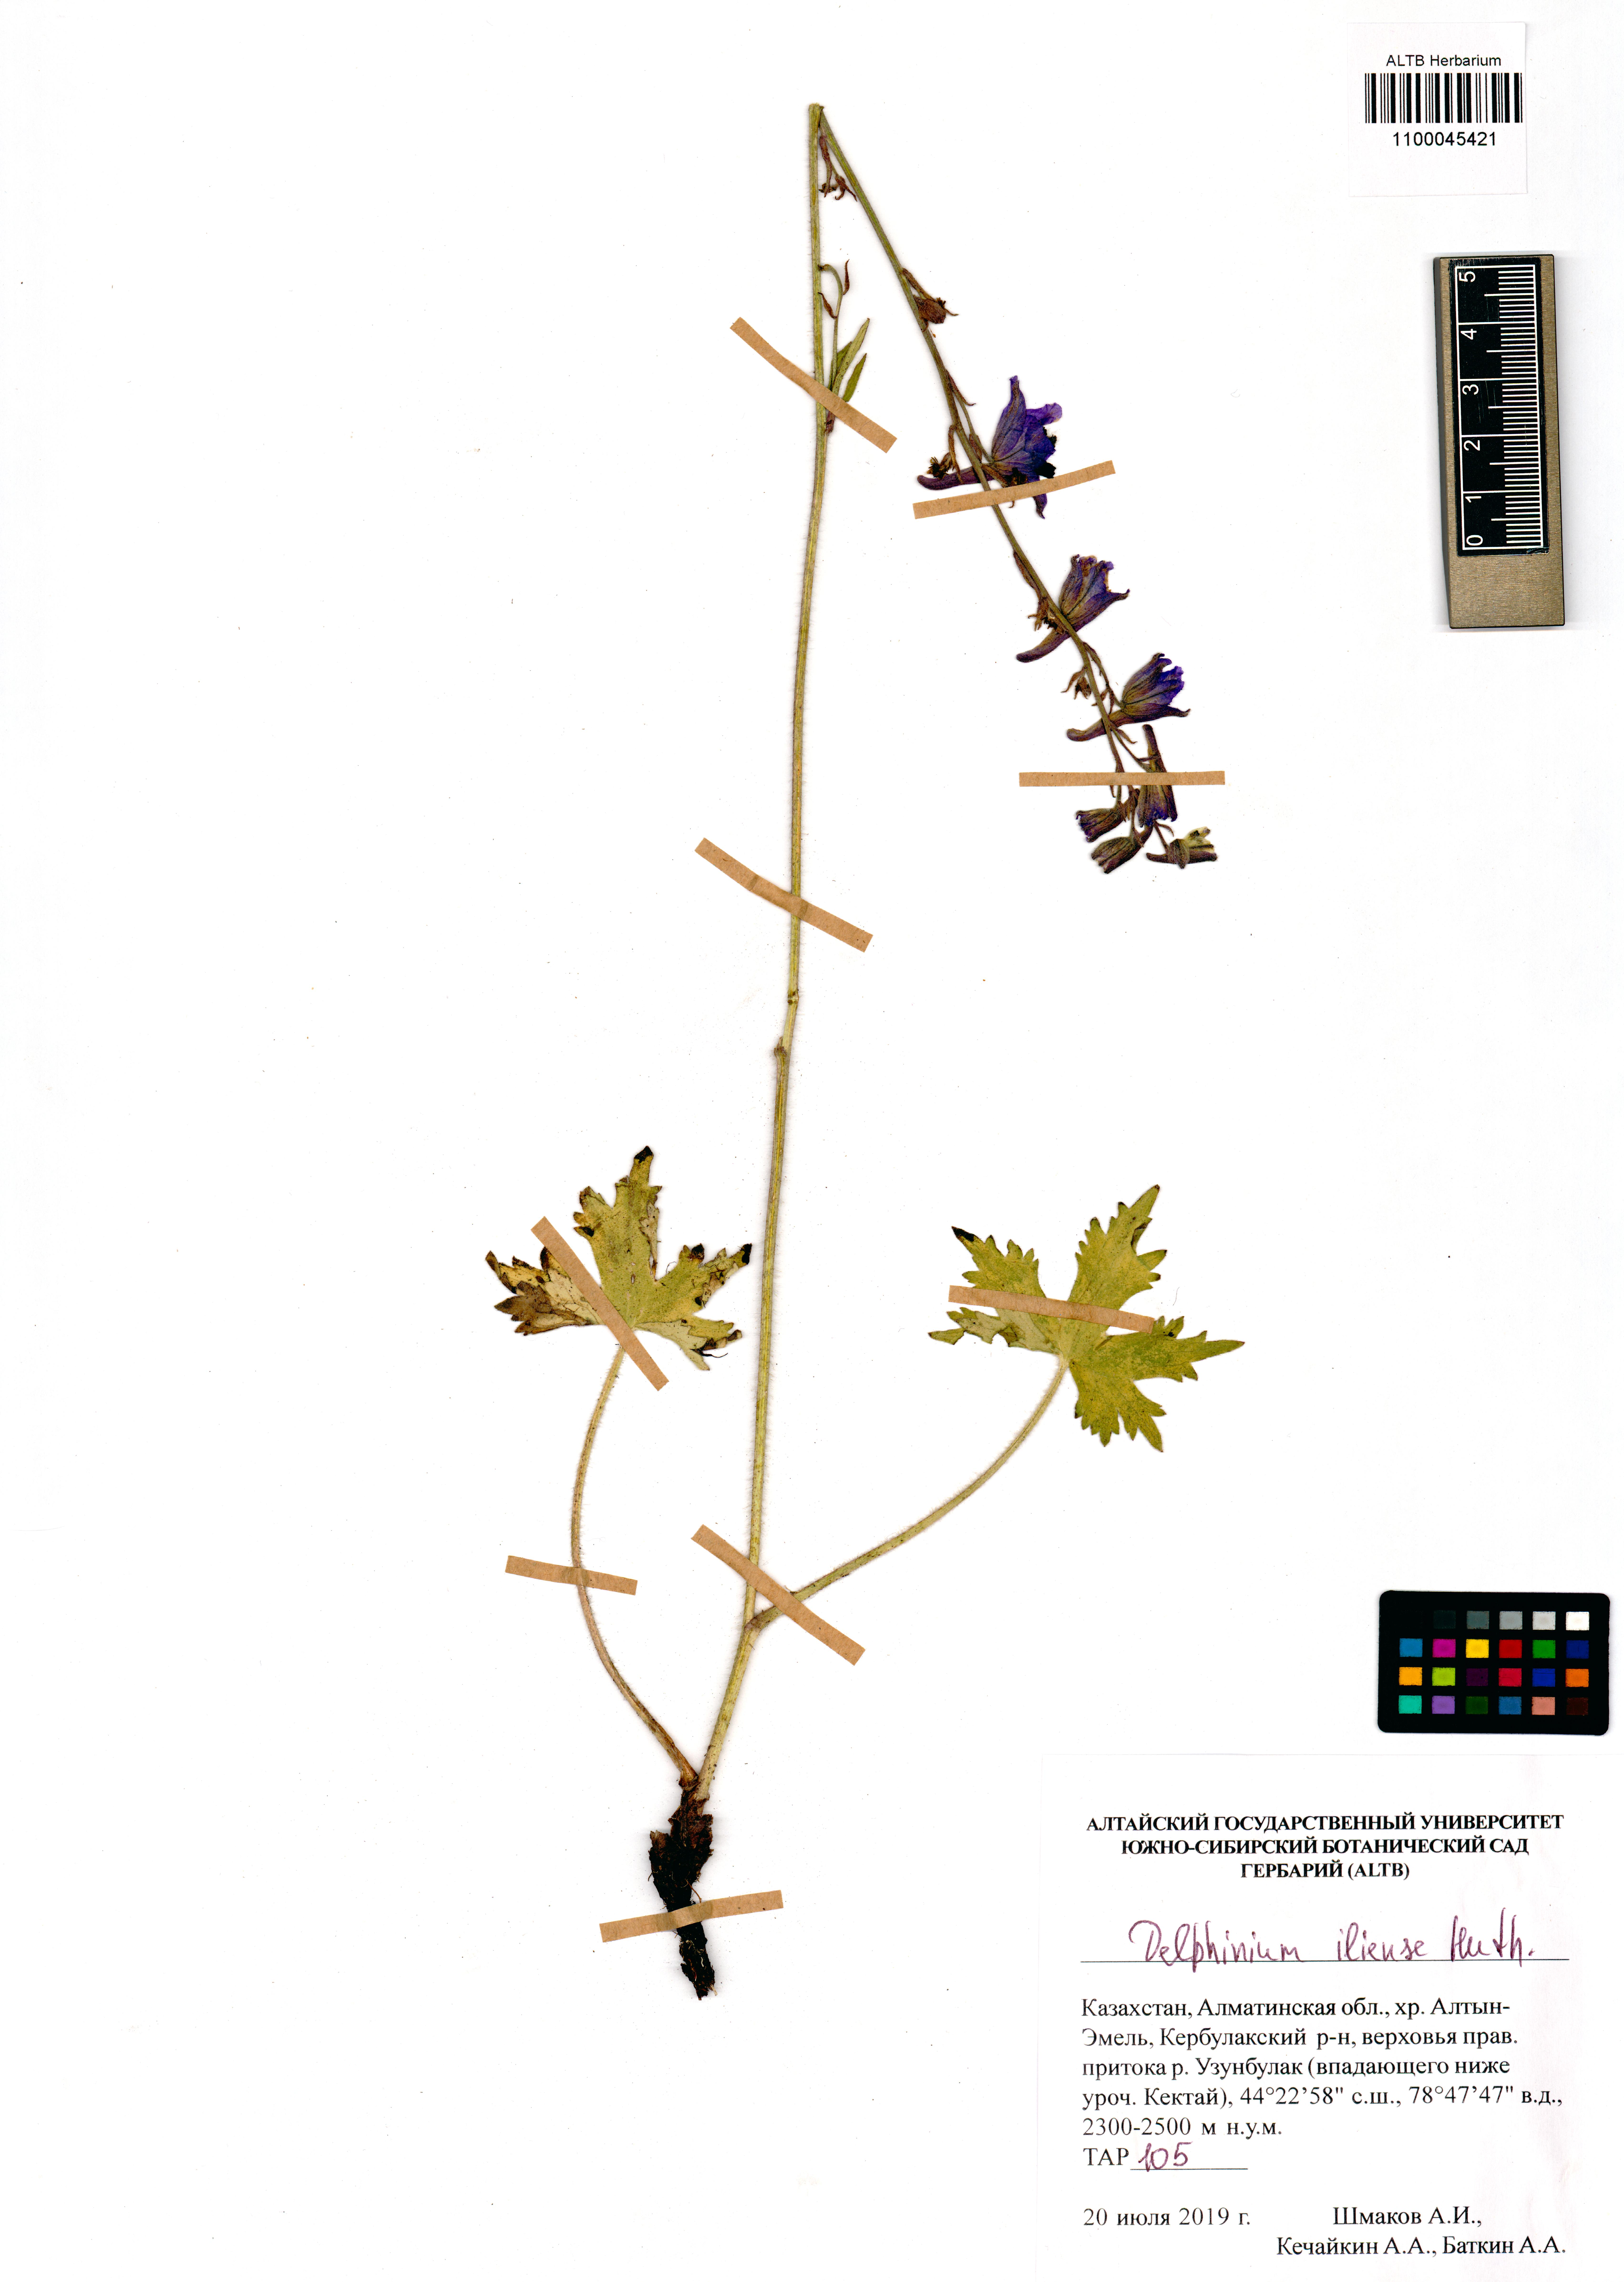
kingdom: Plantae
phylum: Tracheophyta
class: Magnoliopsida
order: Ranunculales
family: Ranunculaceae
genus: Delphinium
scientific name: Delphinium iliense
